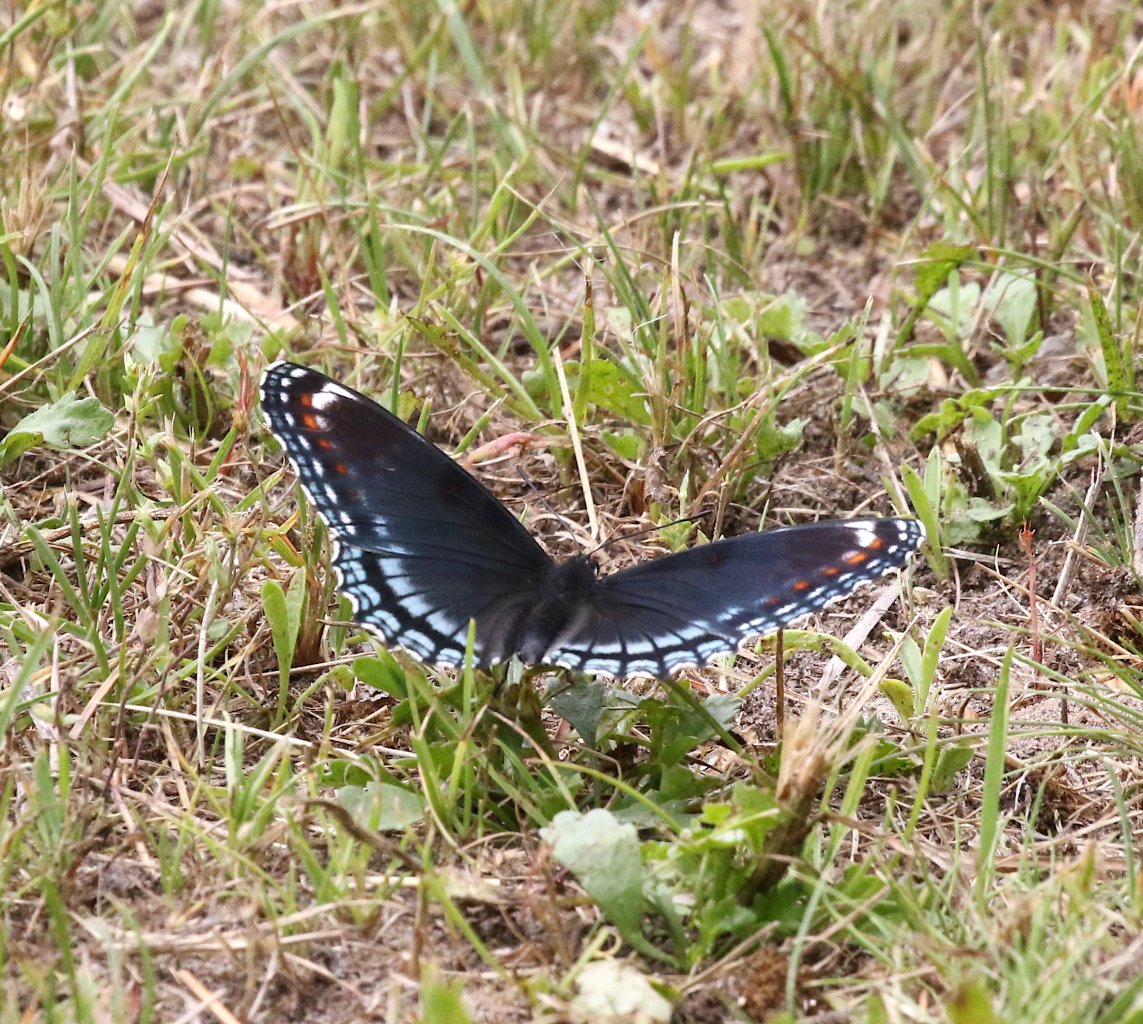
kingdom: Animalia
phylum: Arthropoda
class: Insecta
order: Lepidoptera
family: Nymphalidae
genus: Limenitis
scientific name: Limenitis astyanax
